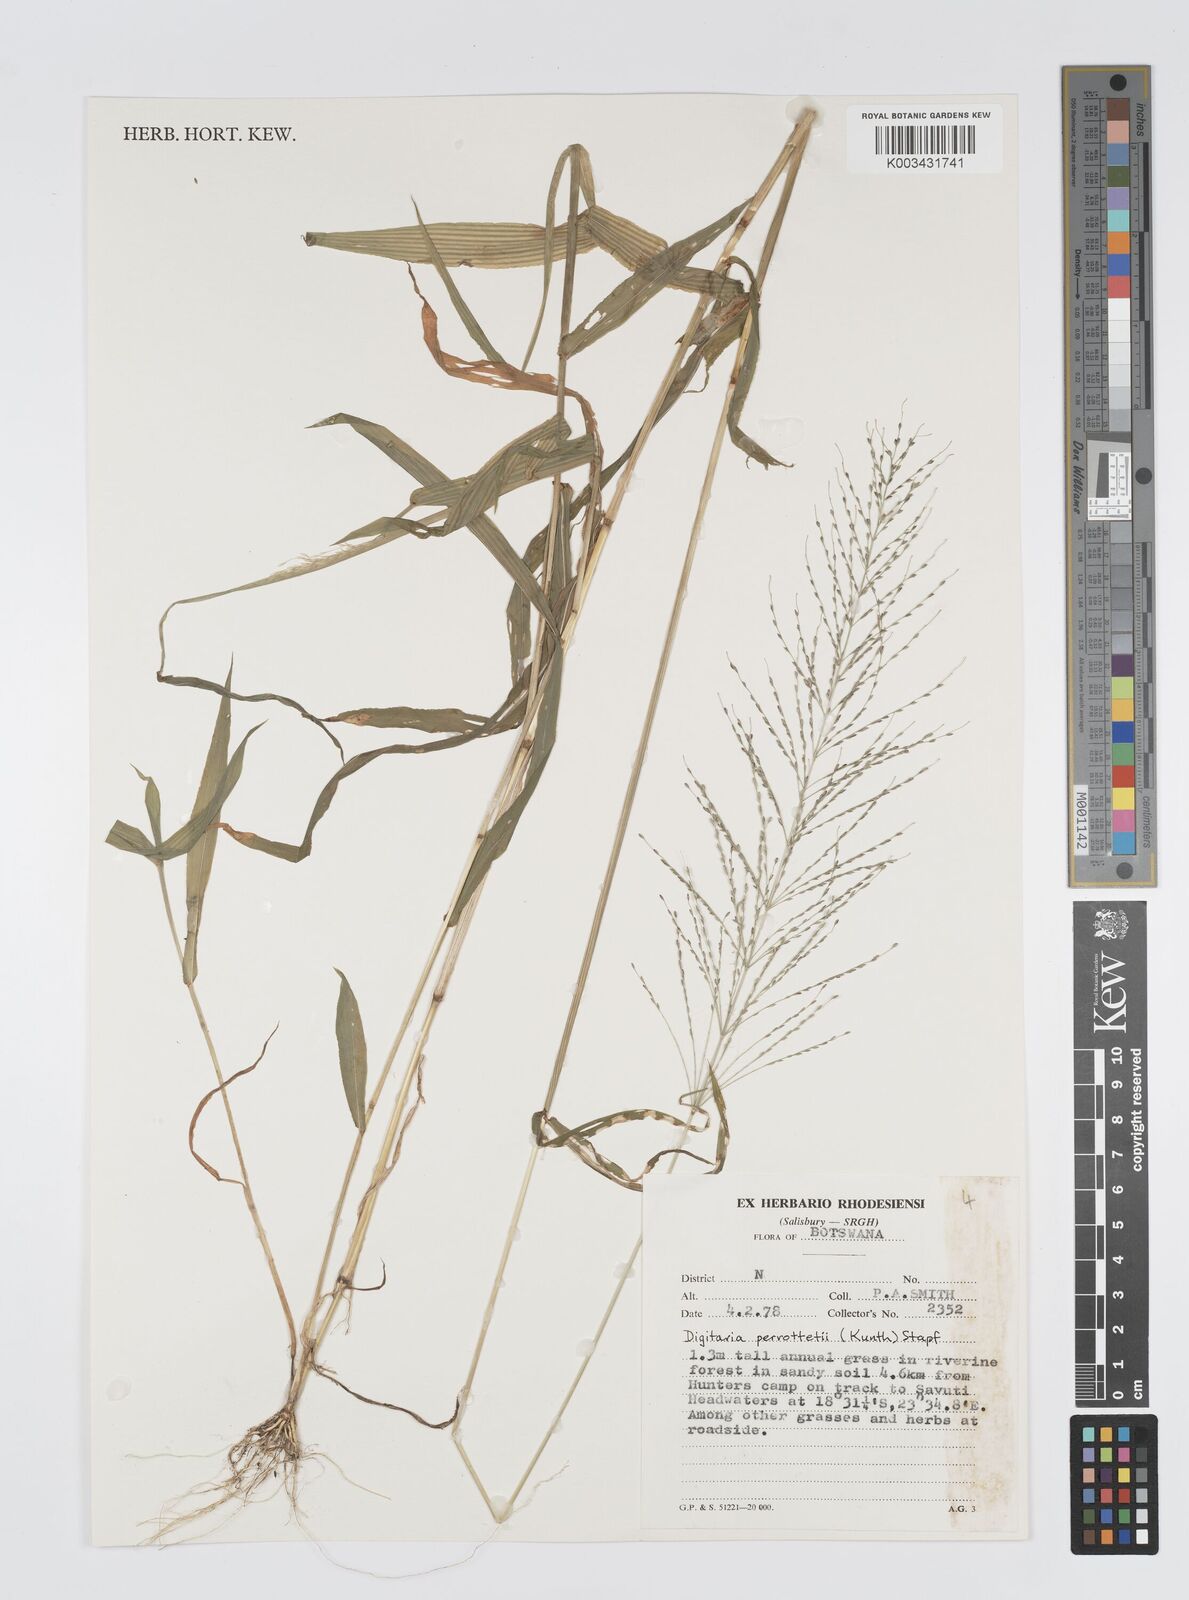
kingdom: Plantae
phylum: Tracheophyta
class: Liliopsida
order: Poales
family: Poaceae
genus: Digitaria
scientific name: Digitaria perrottetii
